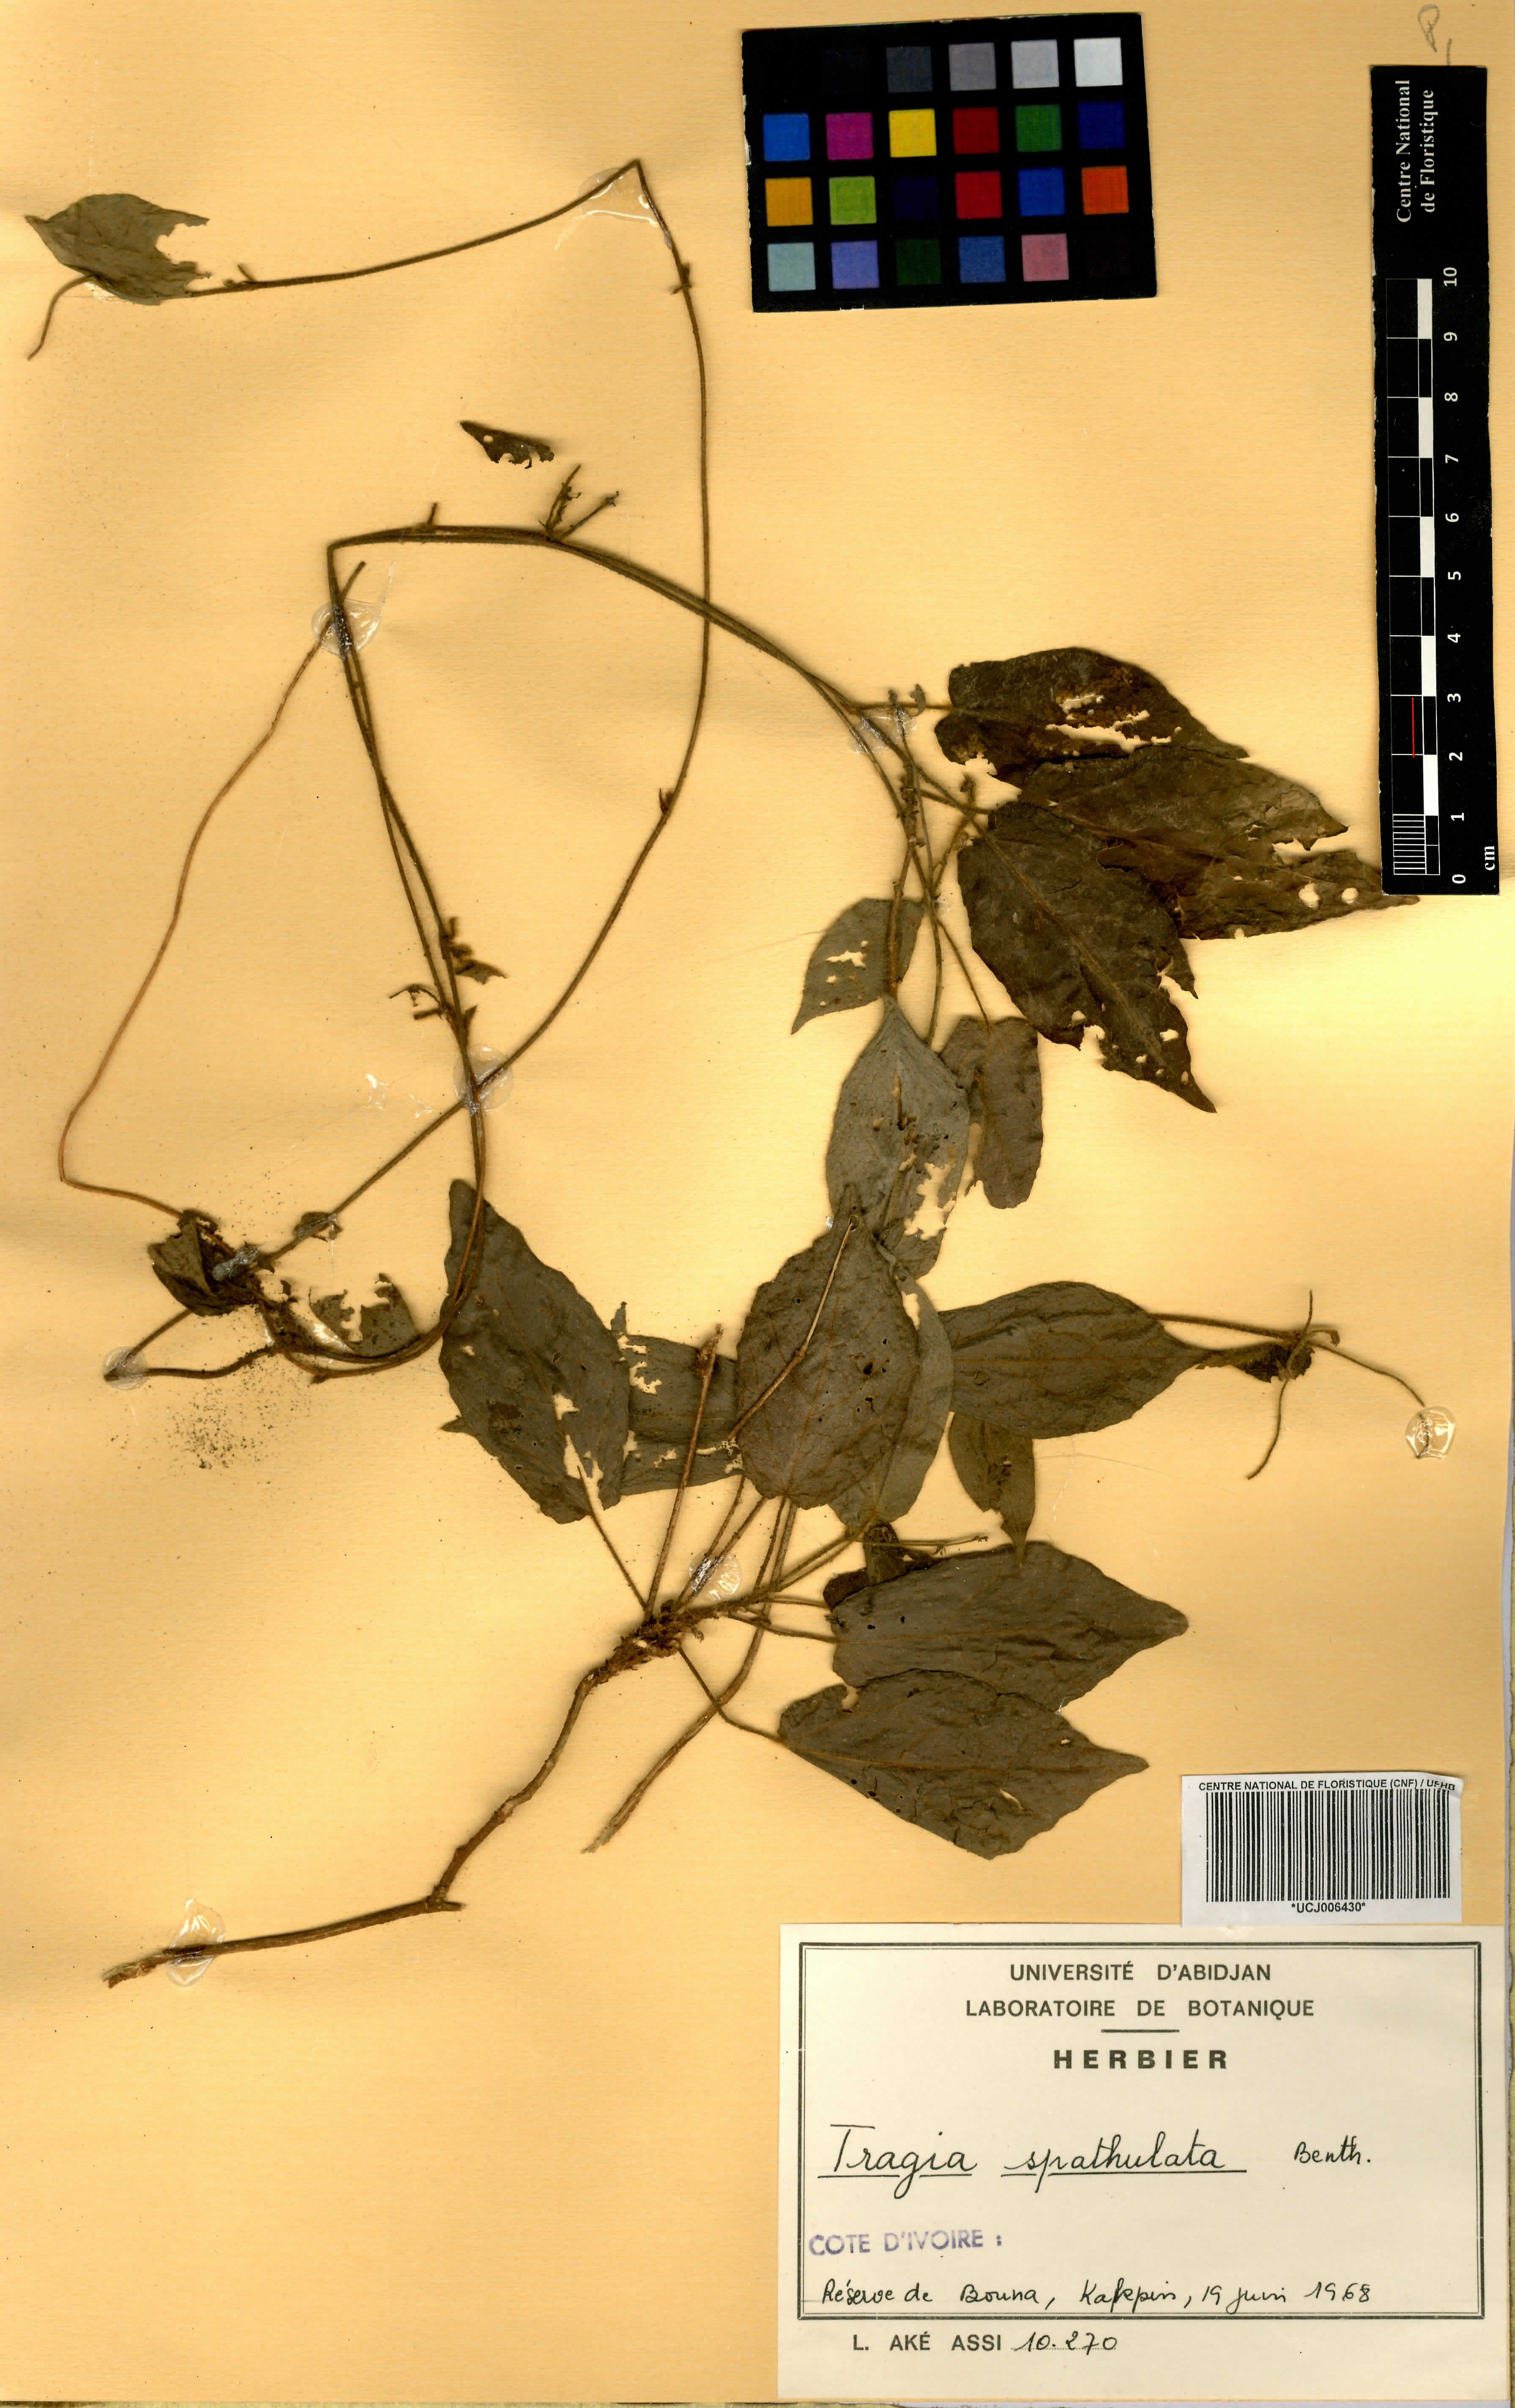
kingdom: Plantae
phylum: Tracheophyta
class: Magnoliopsida
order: Malpighiales
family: Euphorbiaceae
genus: Tragia
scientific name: Tragia spathulata
